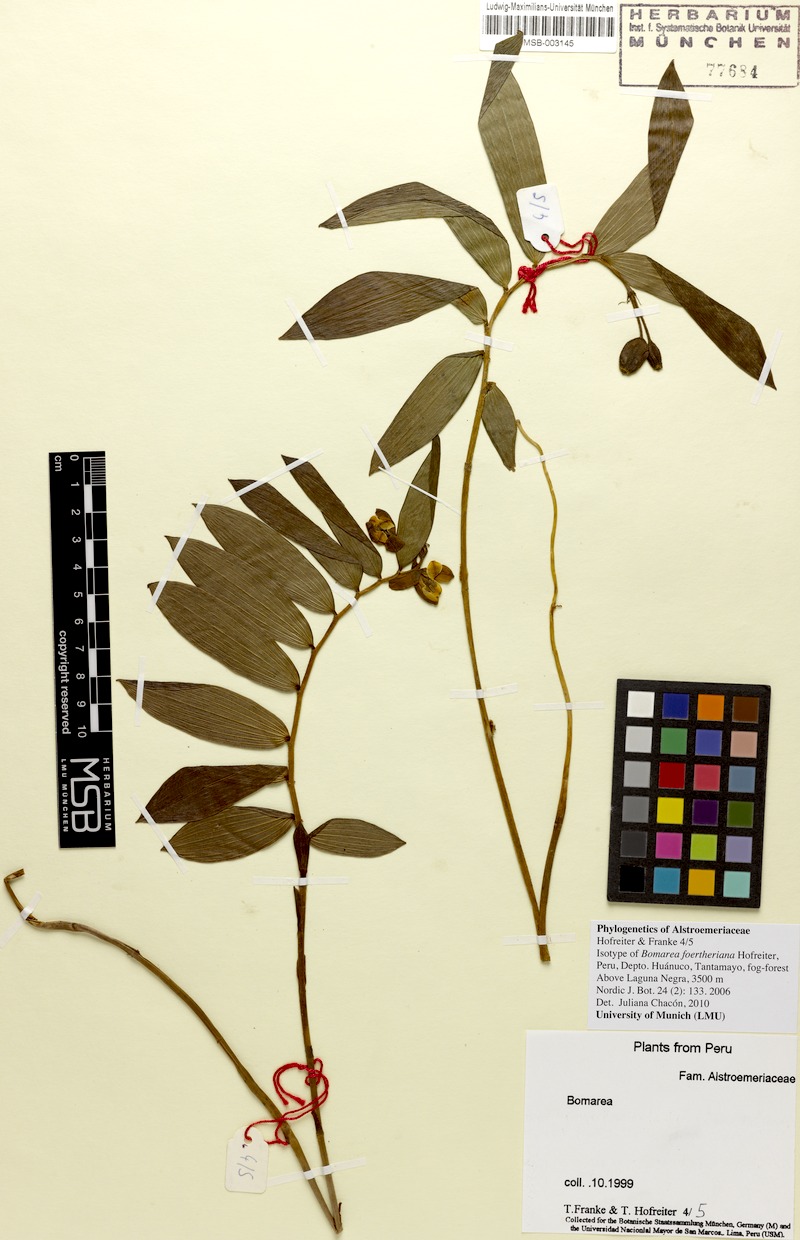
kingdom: Plantae
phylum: Tracheophyta
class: Liliopsida
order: Liliales
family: Alstroemeriaceae
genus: Bomarea
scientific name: Bomarea foertheriana
